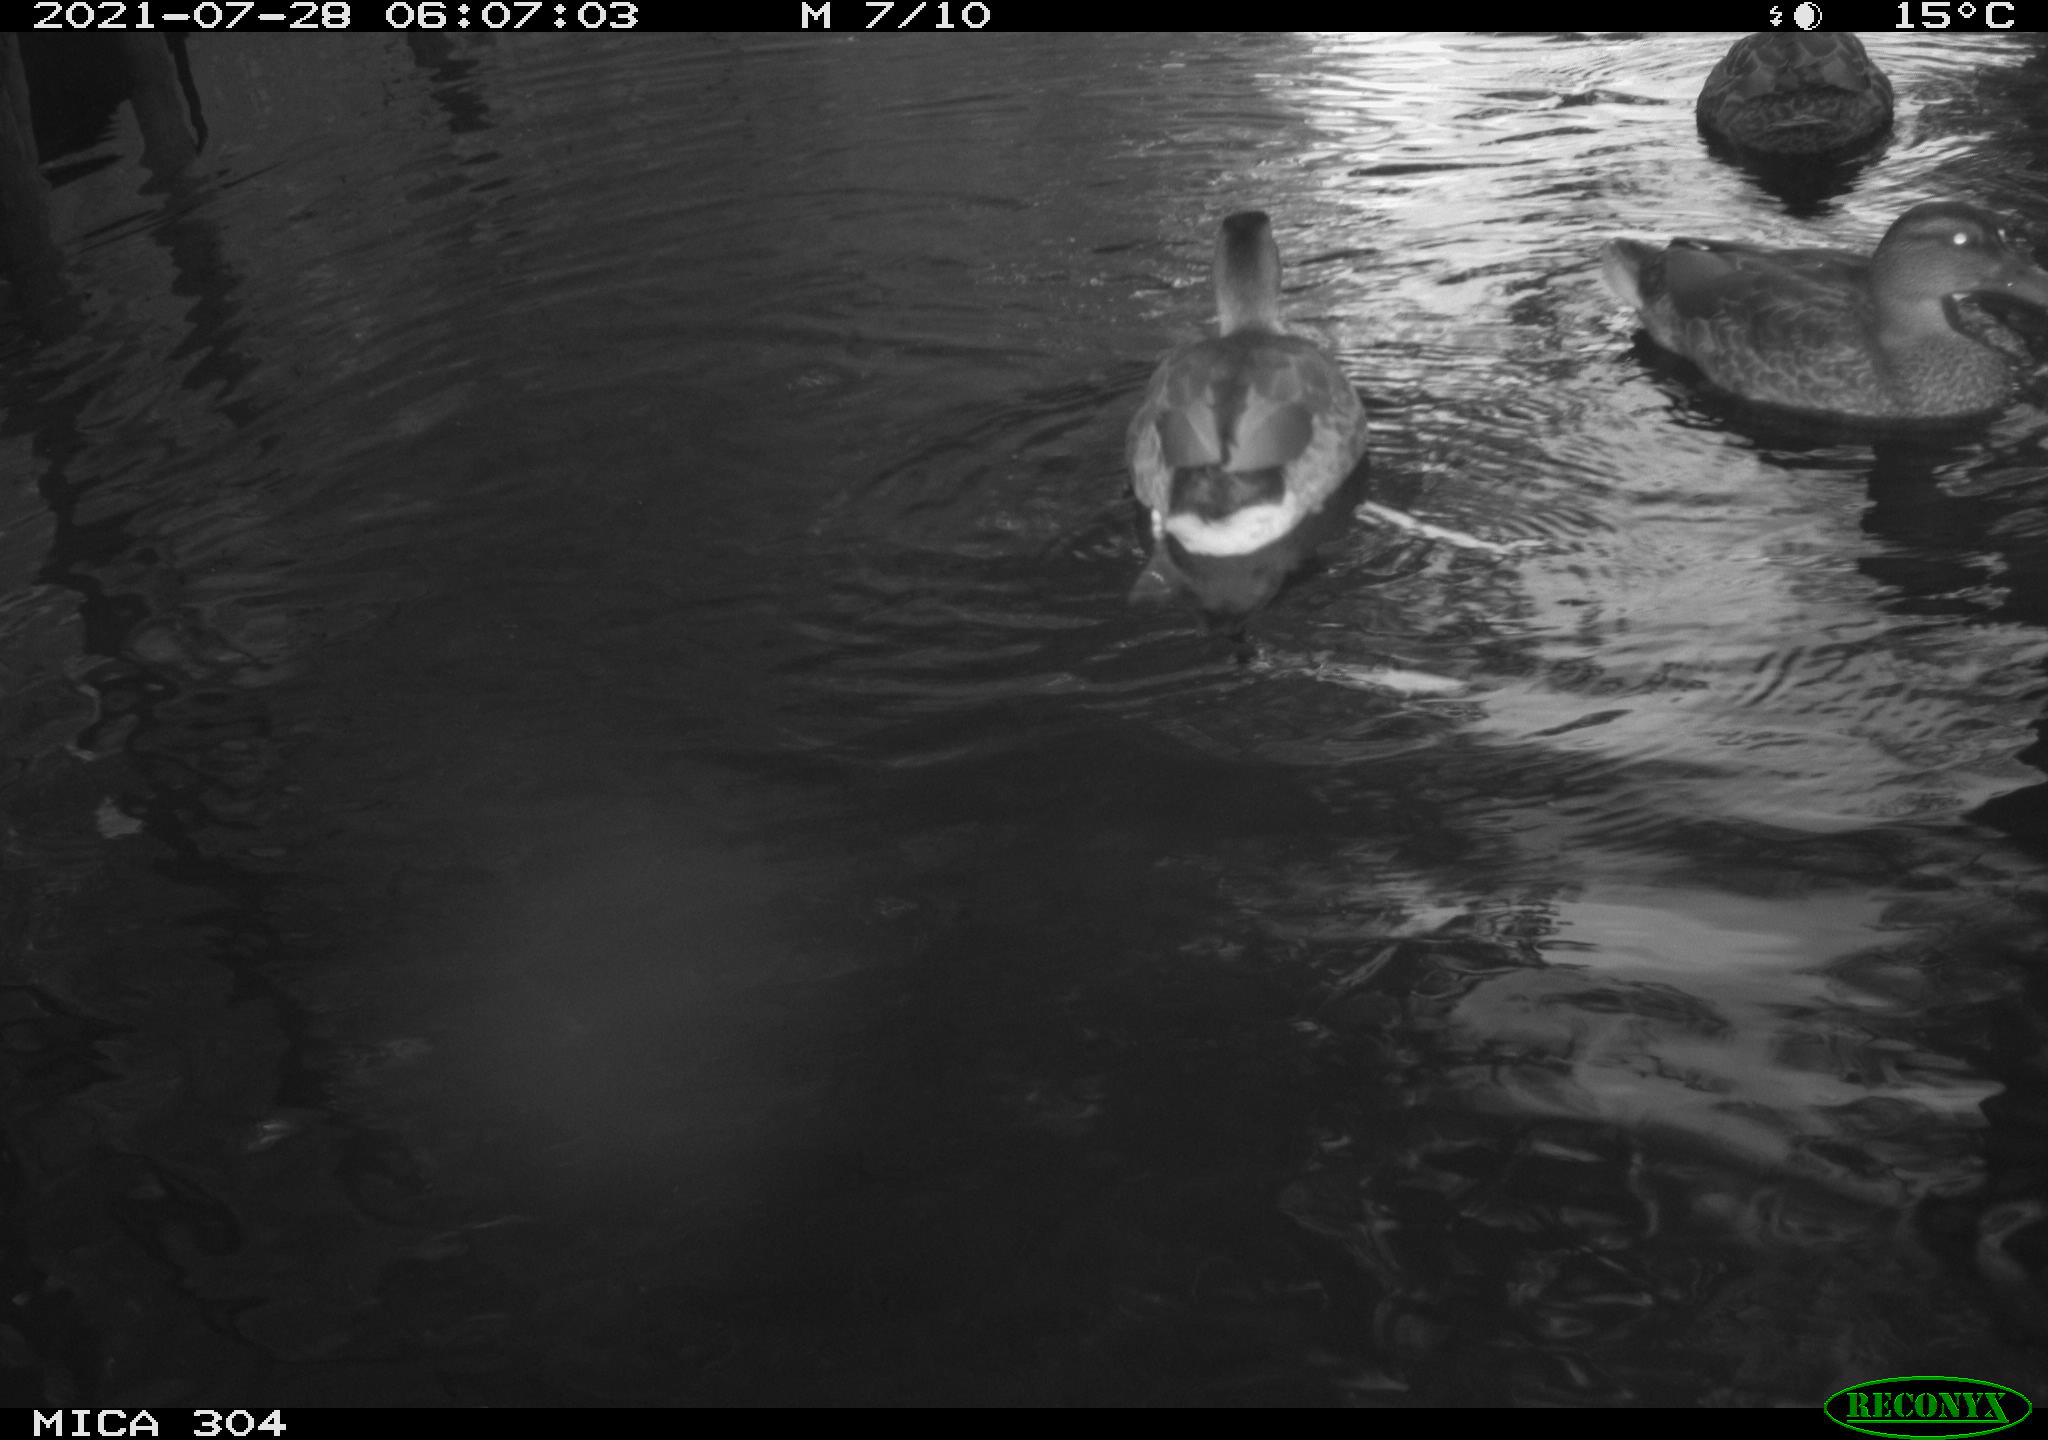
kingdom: Animalia
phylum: Chordata
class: Aves
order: Anseriformes
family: Anatidae
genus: Mareca
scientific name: Mareca strepera
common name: Gadwall
